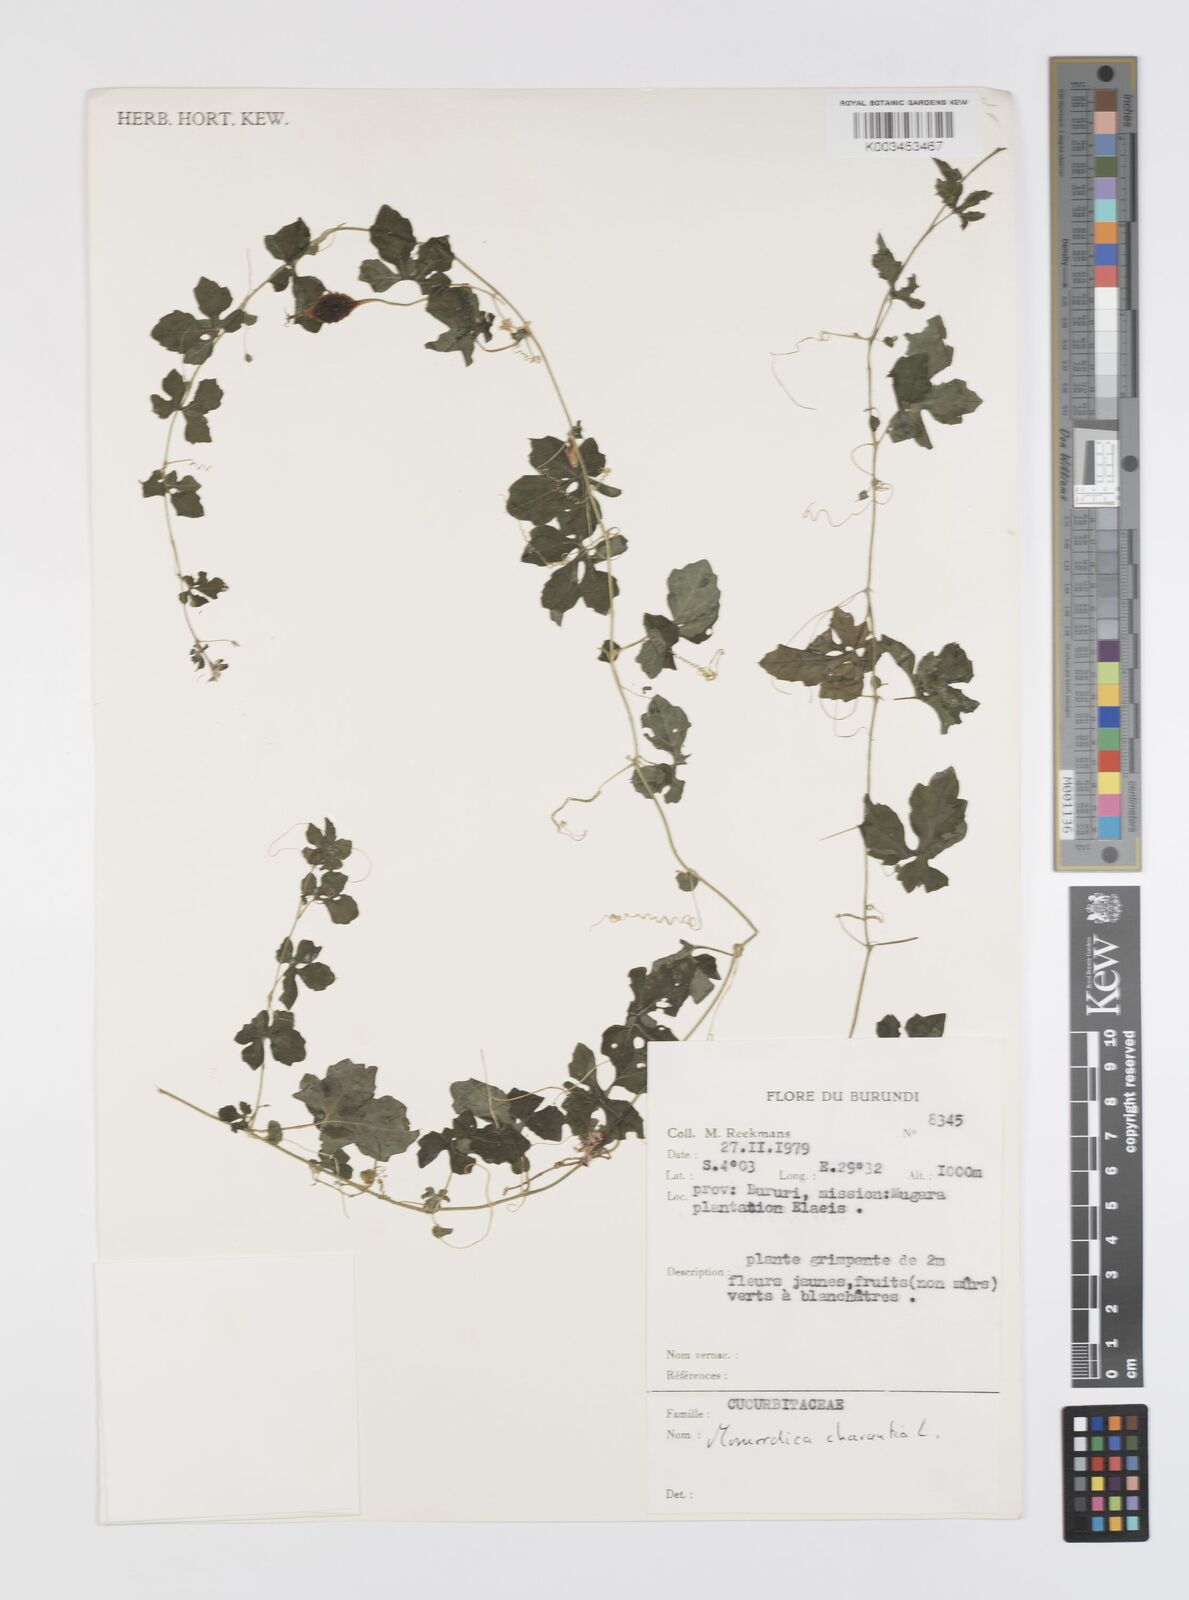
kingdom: Plantae
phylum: Tracheophyta
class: Magnoliopsida
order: Cucurbitales
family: Cucurbitaceae
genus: Momordica
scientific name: Momordica charantia
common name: Balsampear
